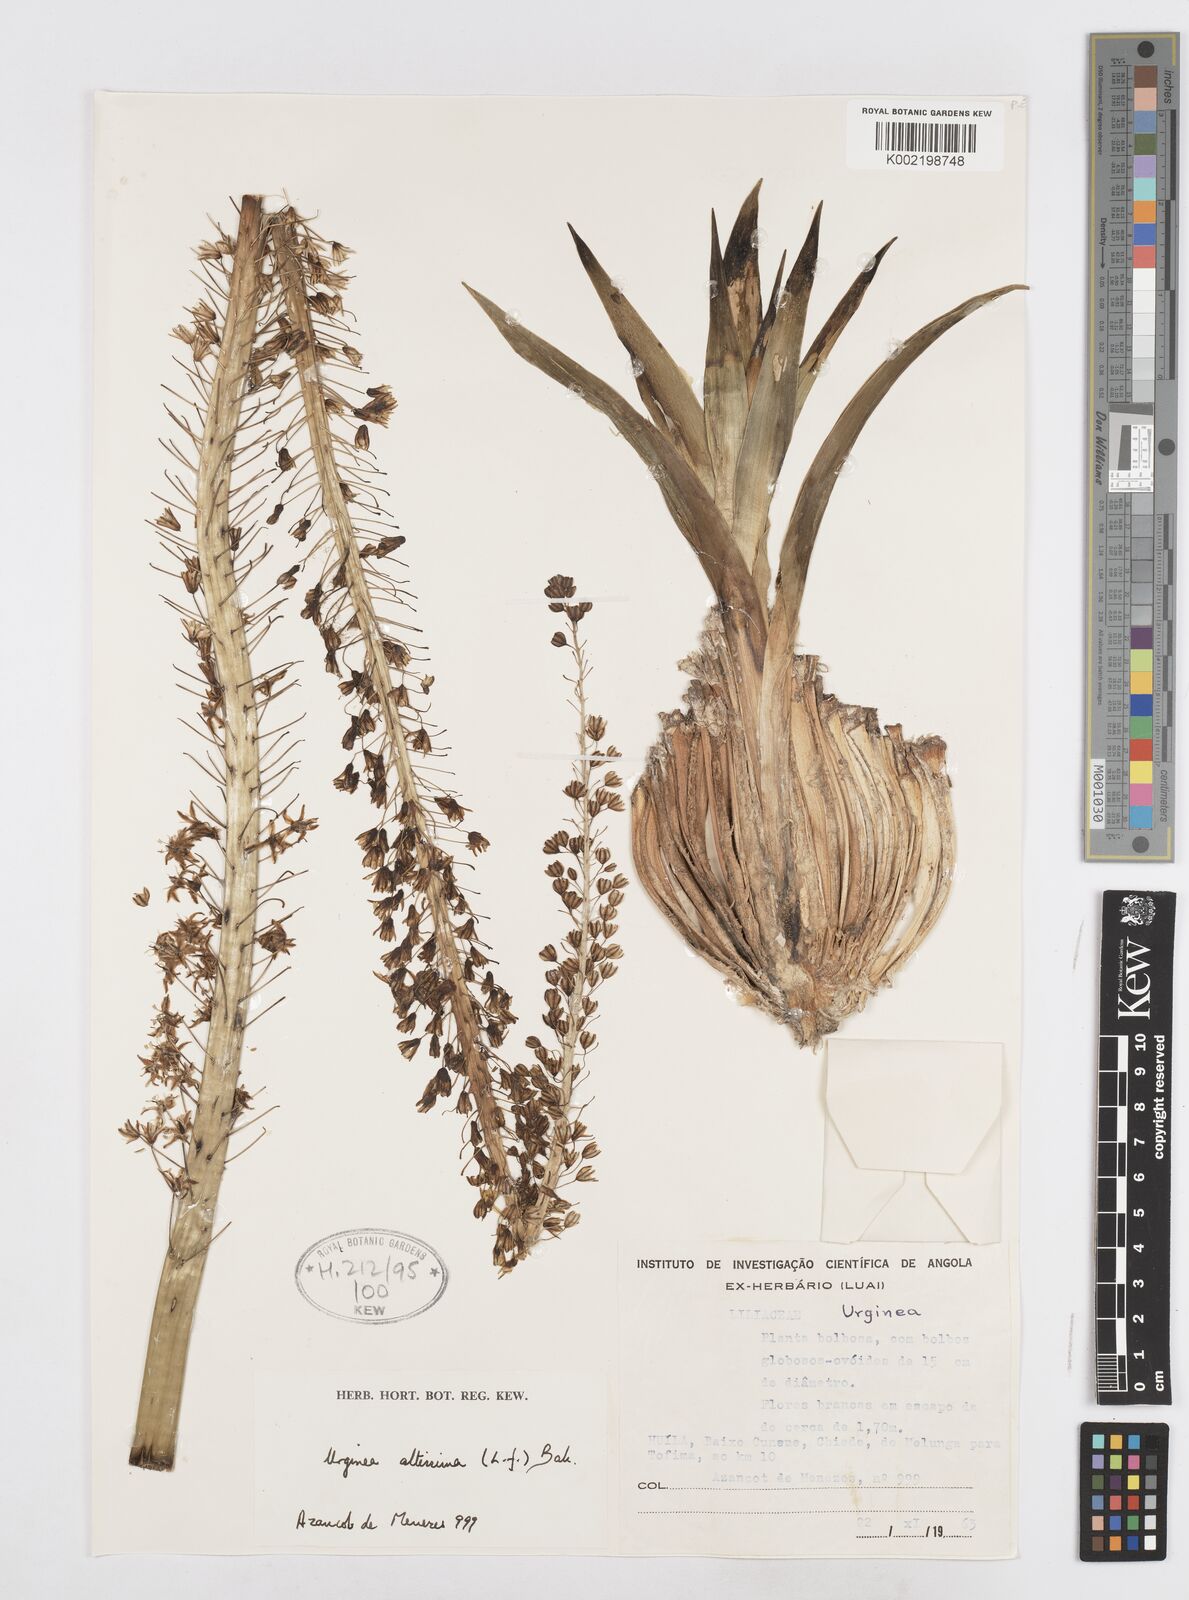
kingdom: Plantae
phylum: Tracheophyta
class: Liliopsida
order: Asparagales
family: Asparagaceae
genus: Drimia
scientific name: Drimia altissima
